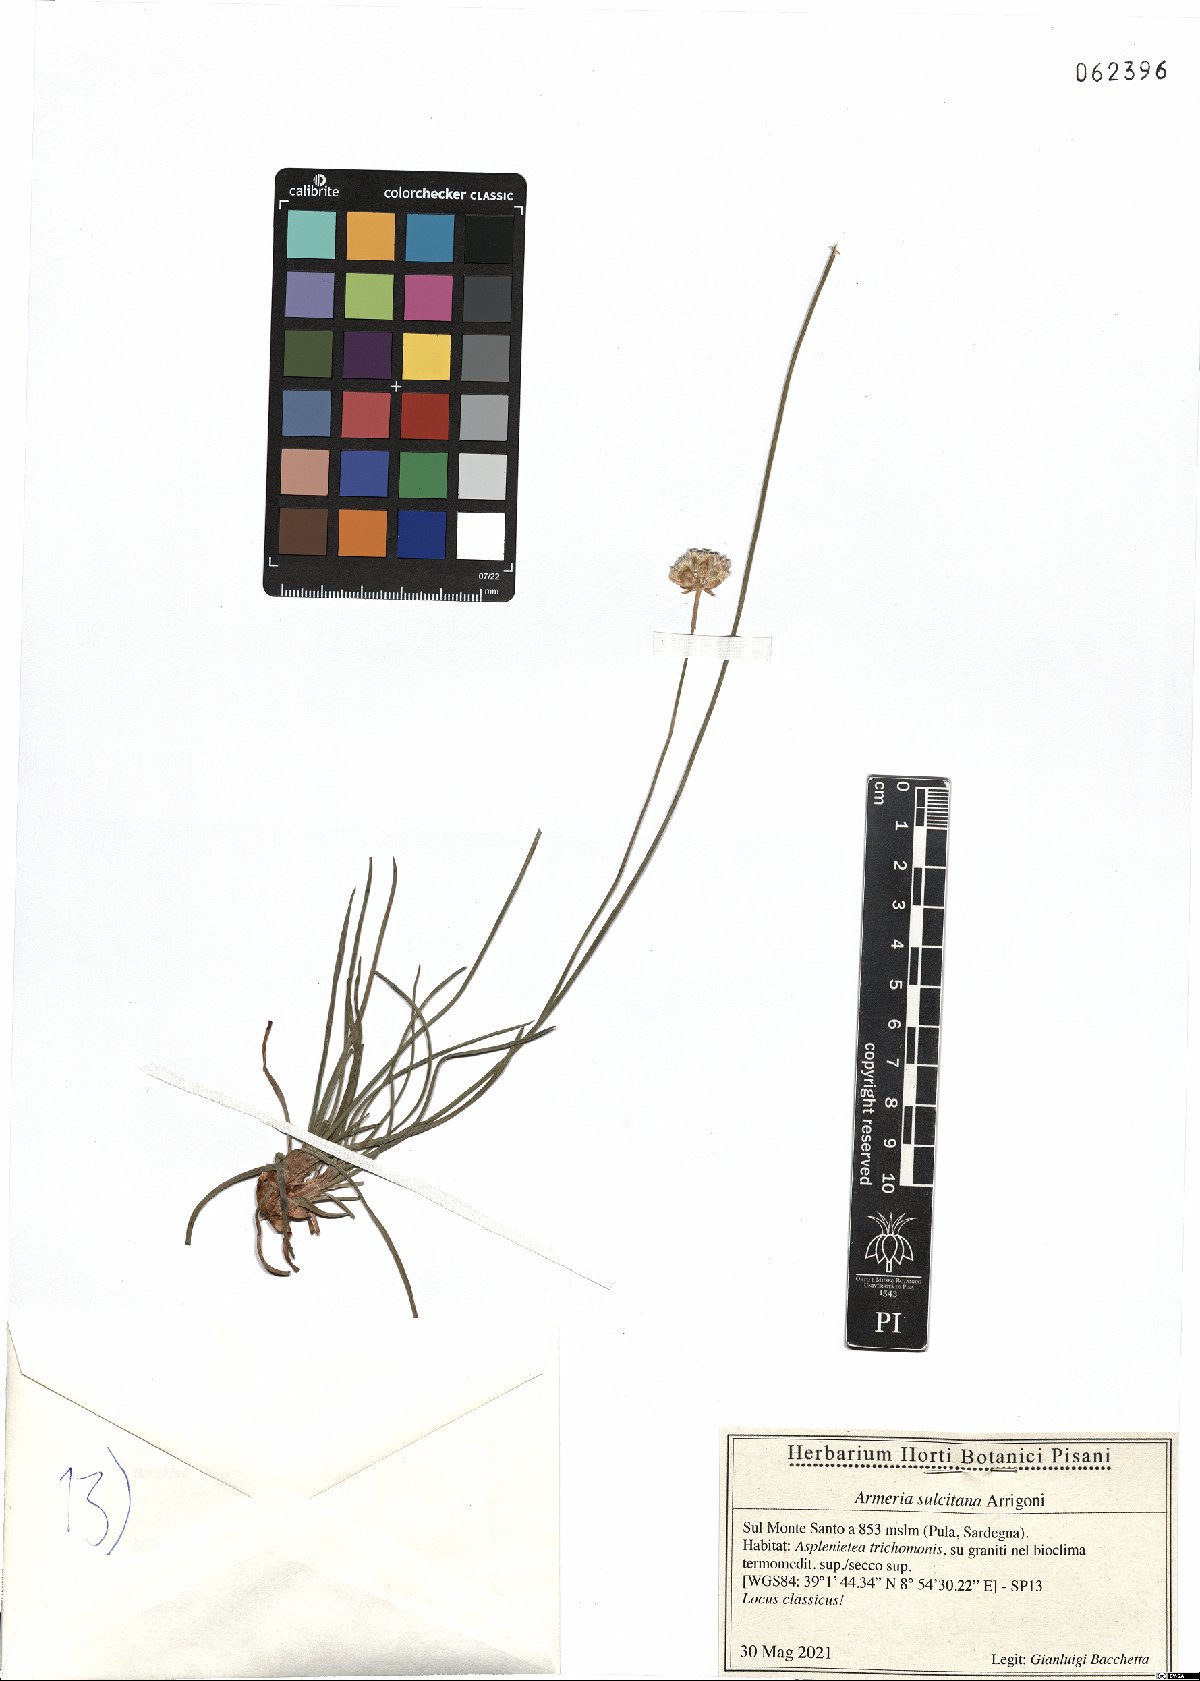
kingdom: Plantae
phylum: Tracheophyta
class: Magnoliopsida
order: Caryophyllales
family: Plumbaginaceae
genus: Armeria
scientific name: Armeria sulcitana
